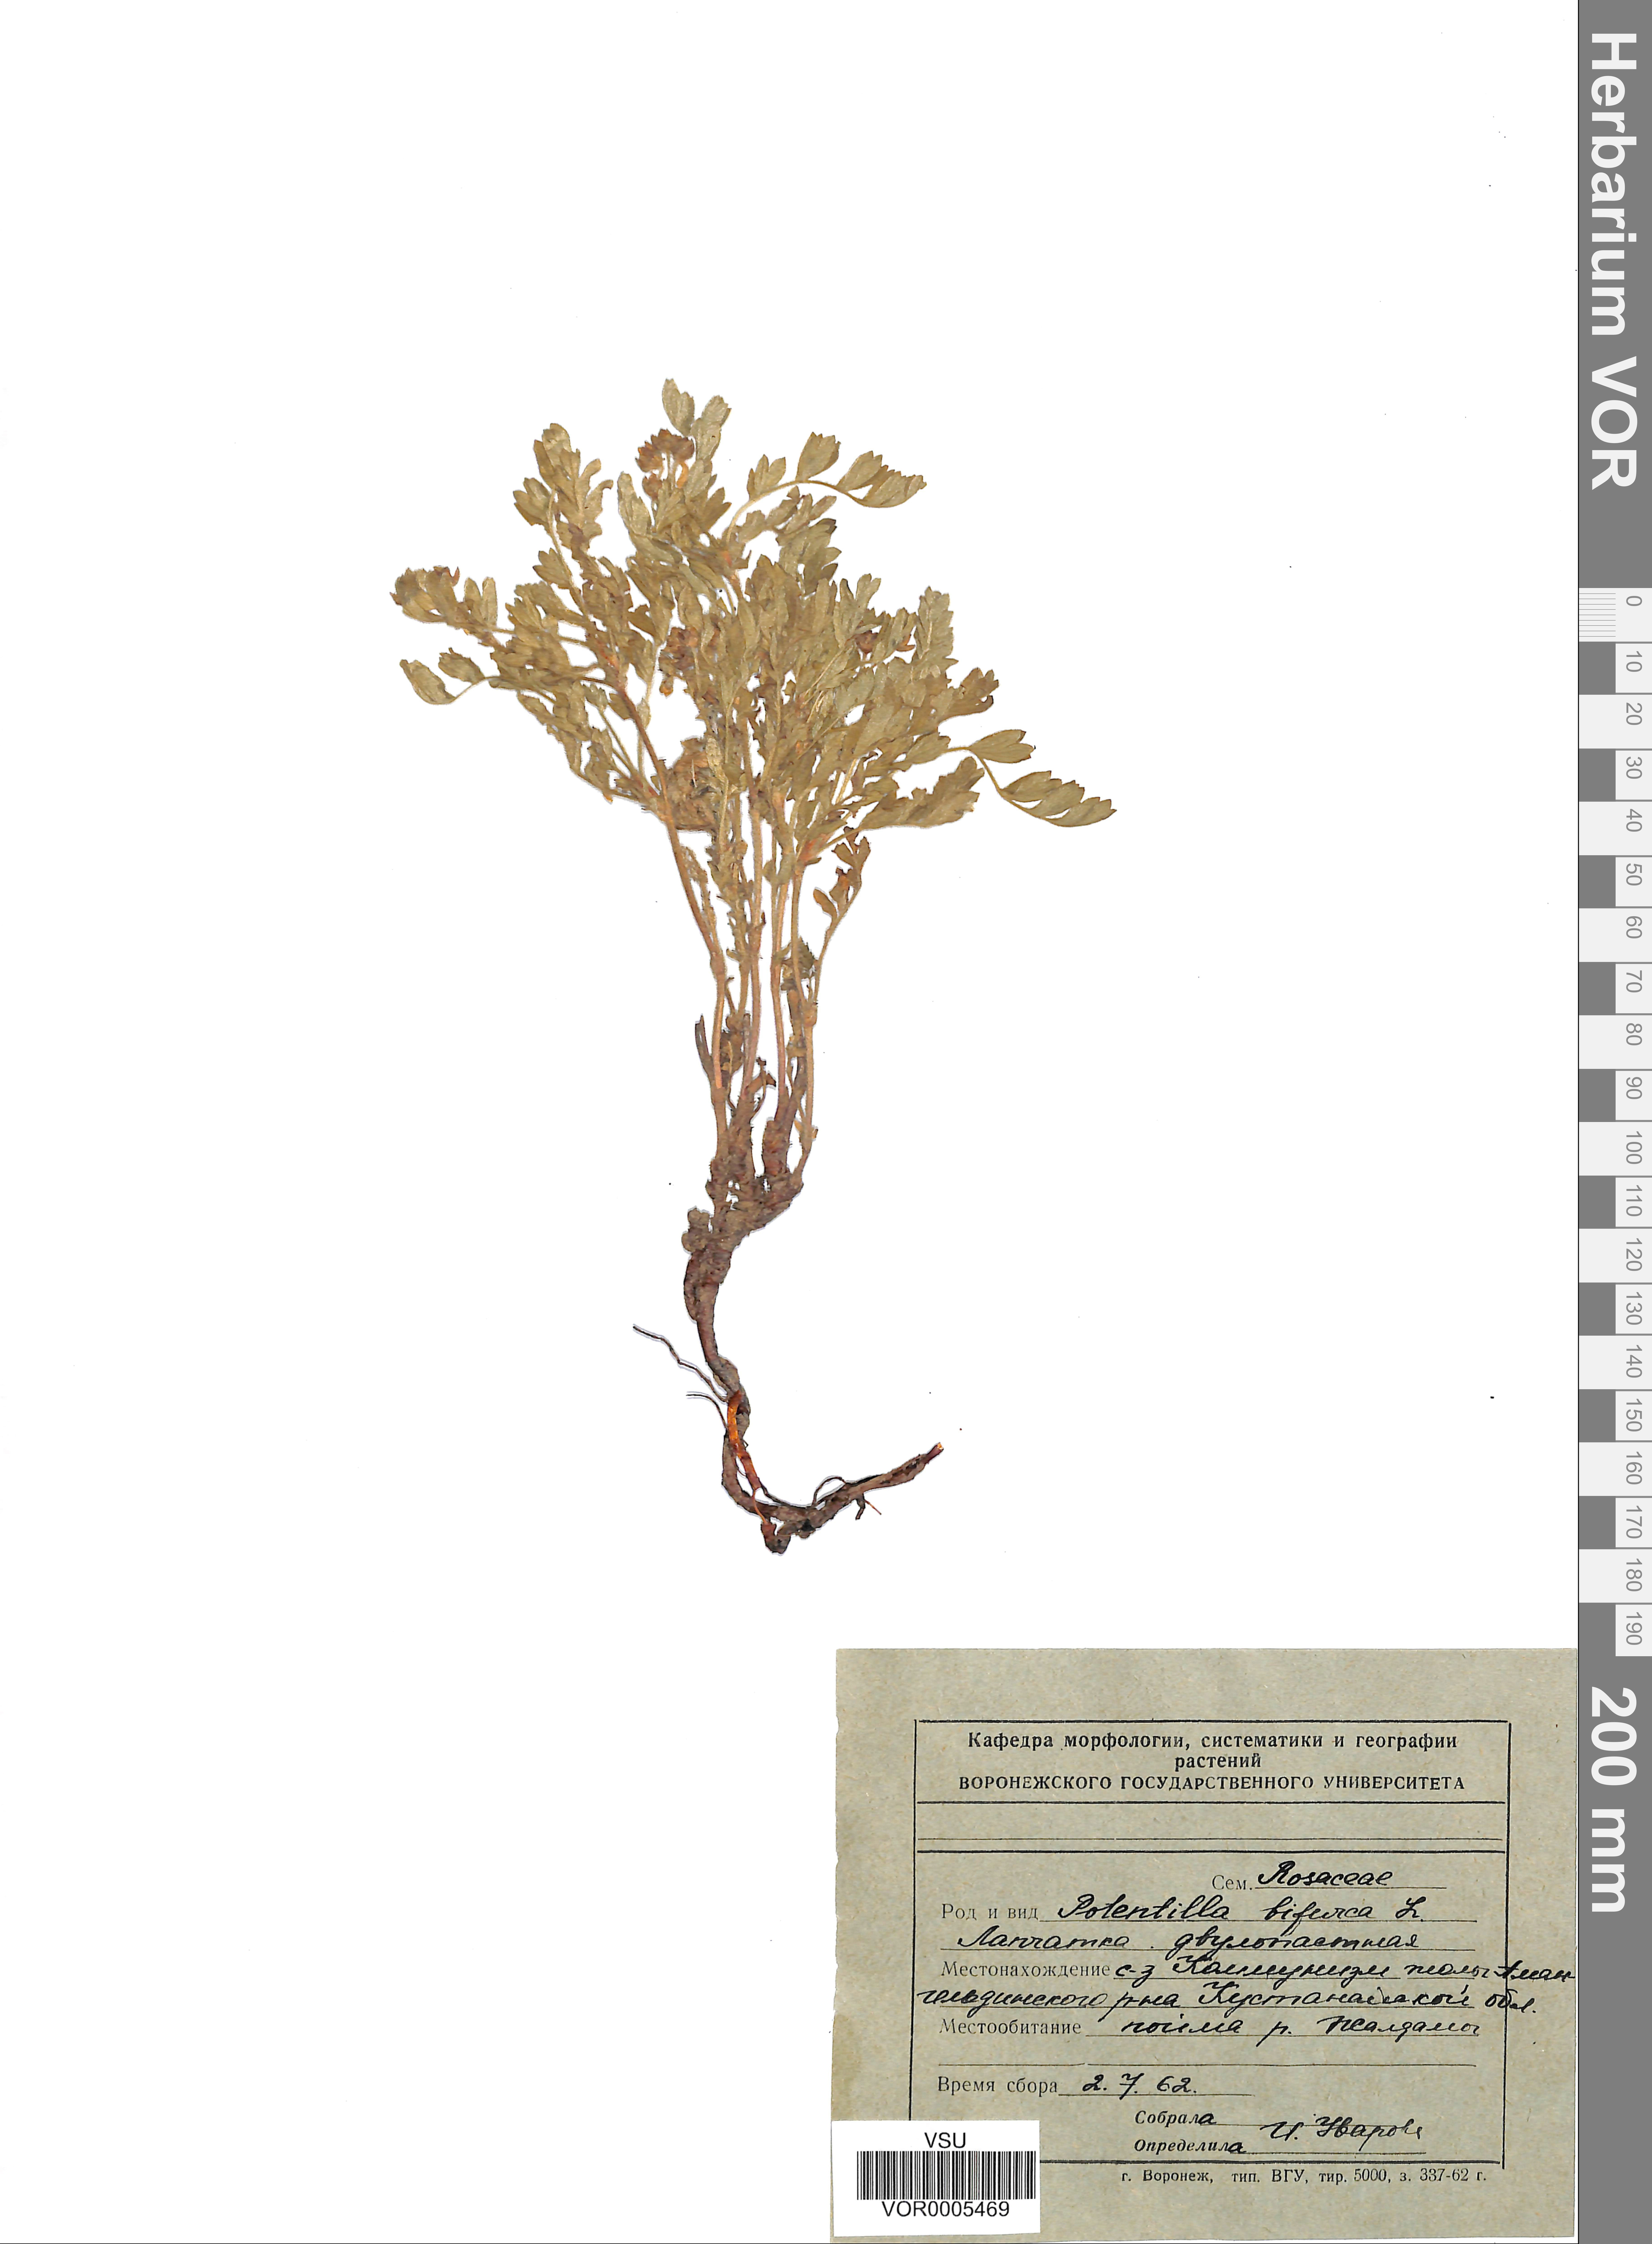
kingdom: Plantae
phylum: Tracheophyta
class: Magnoliopsida
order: Rosales
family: Rosaceae
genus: Sibbaldianthe
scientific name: Sibbaldianthe bifurca
